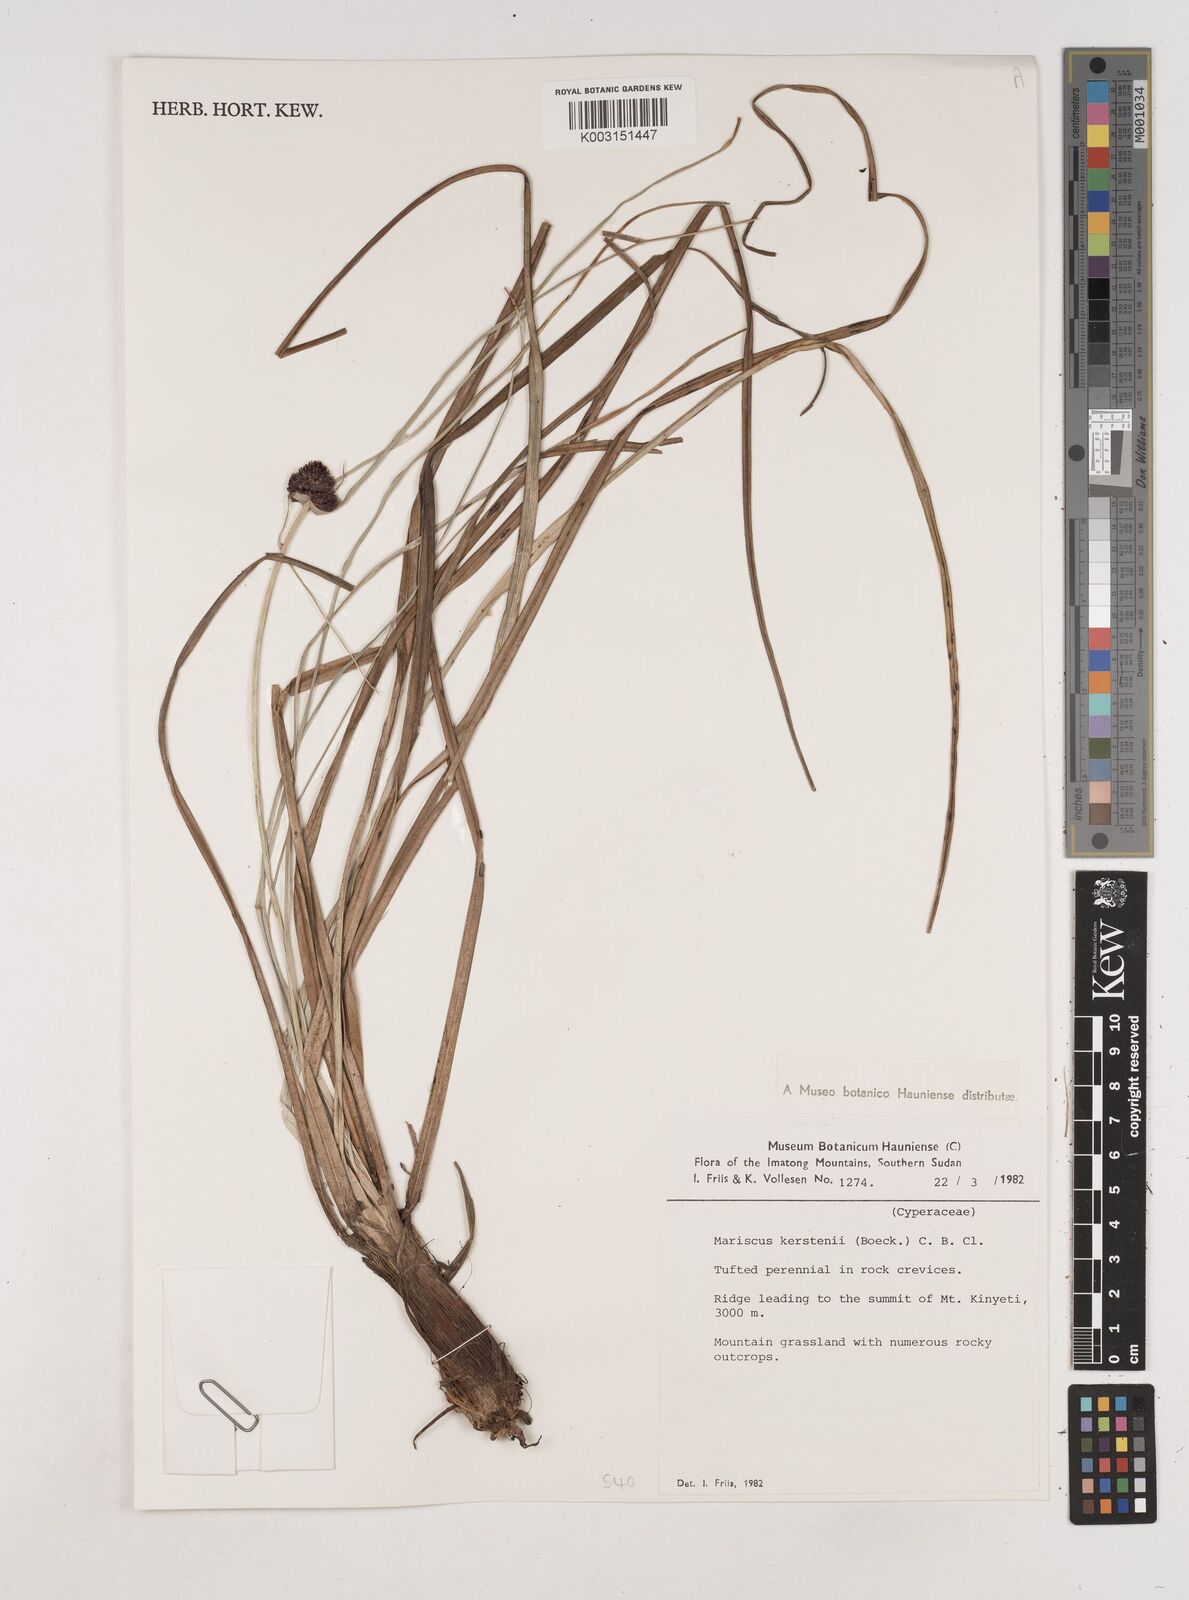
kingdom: Plantae
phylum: Tracheophyta
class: Liliopsida
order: Poales
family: Cyperaceae
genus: Cyperus
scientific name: Cyperus kerstenii
